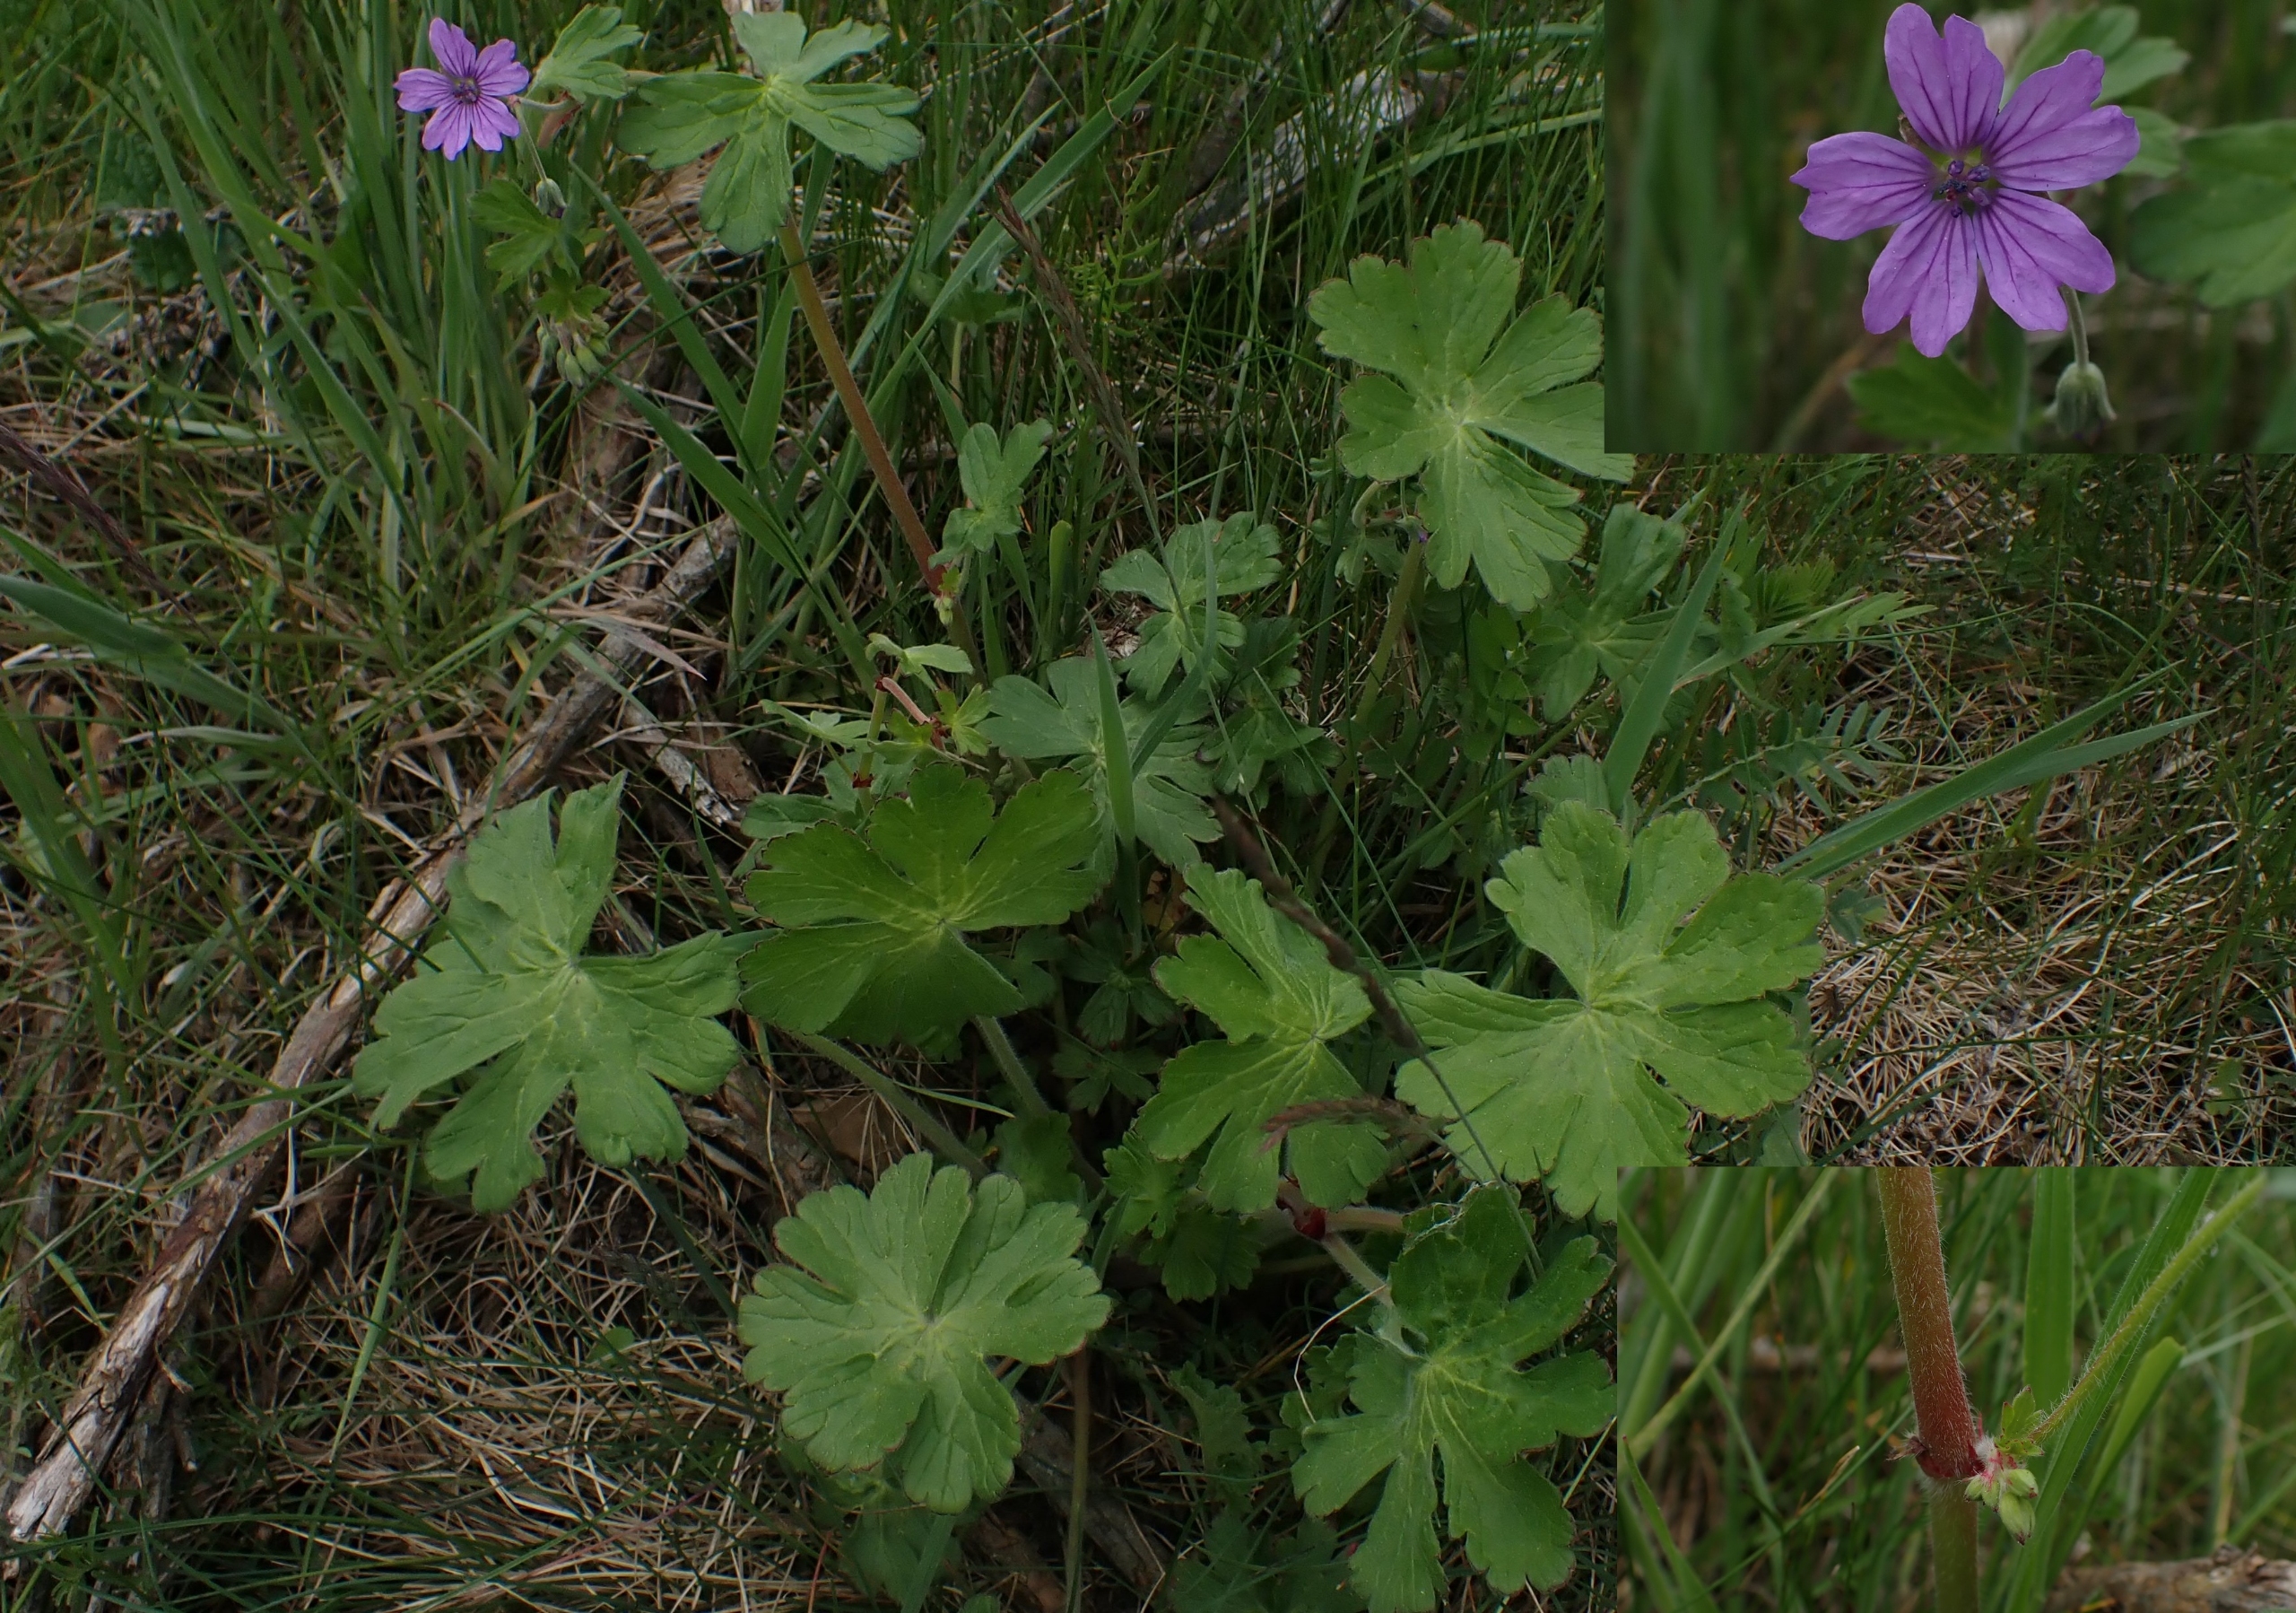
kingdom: Plantae
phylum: Tracheophyta
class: Magnoliopsida
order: Geraniales
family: Geraniaceae
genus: Geranium
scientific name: Geranium pyrenaicum
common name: Pyrenæisk storkenæb
